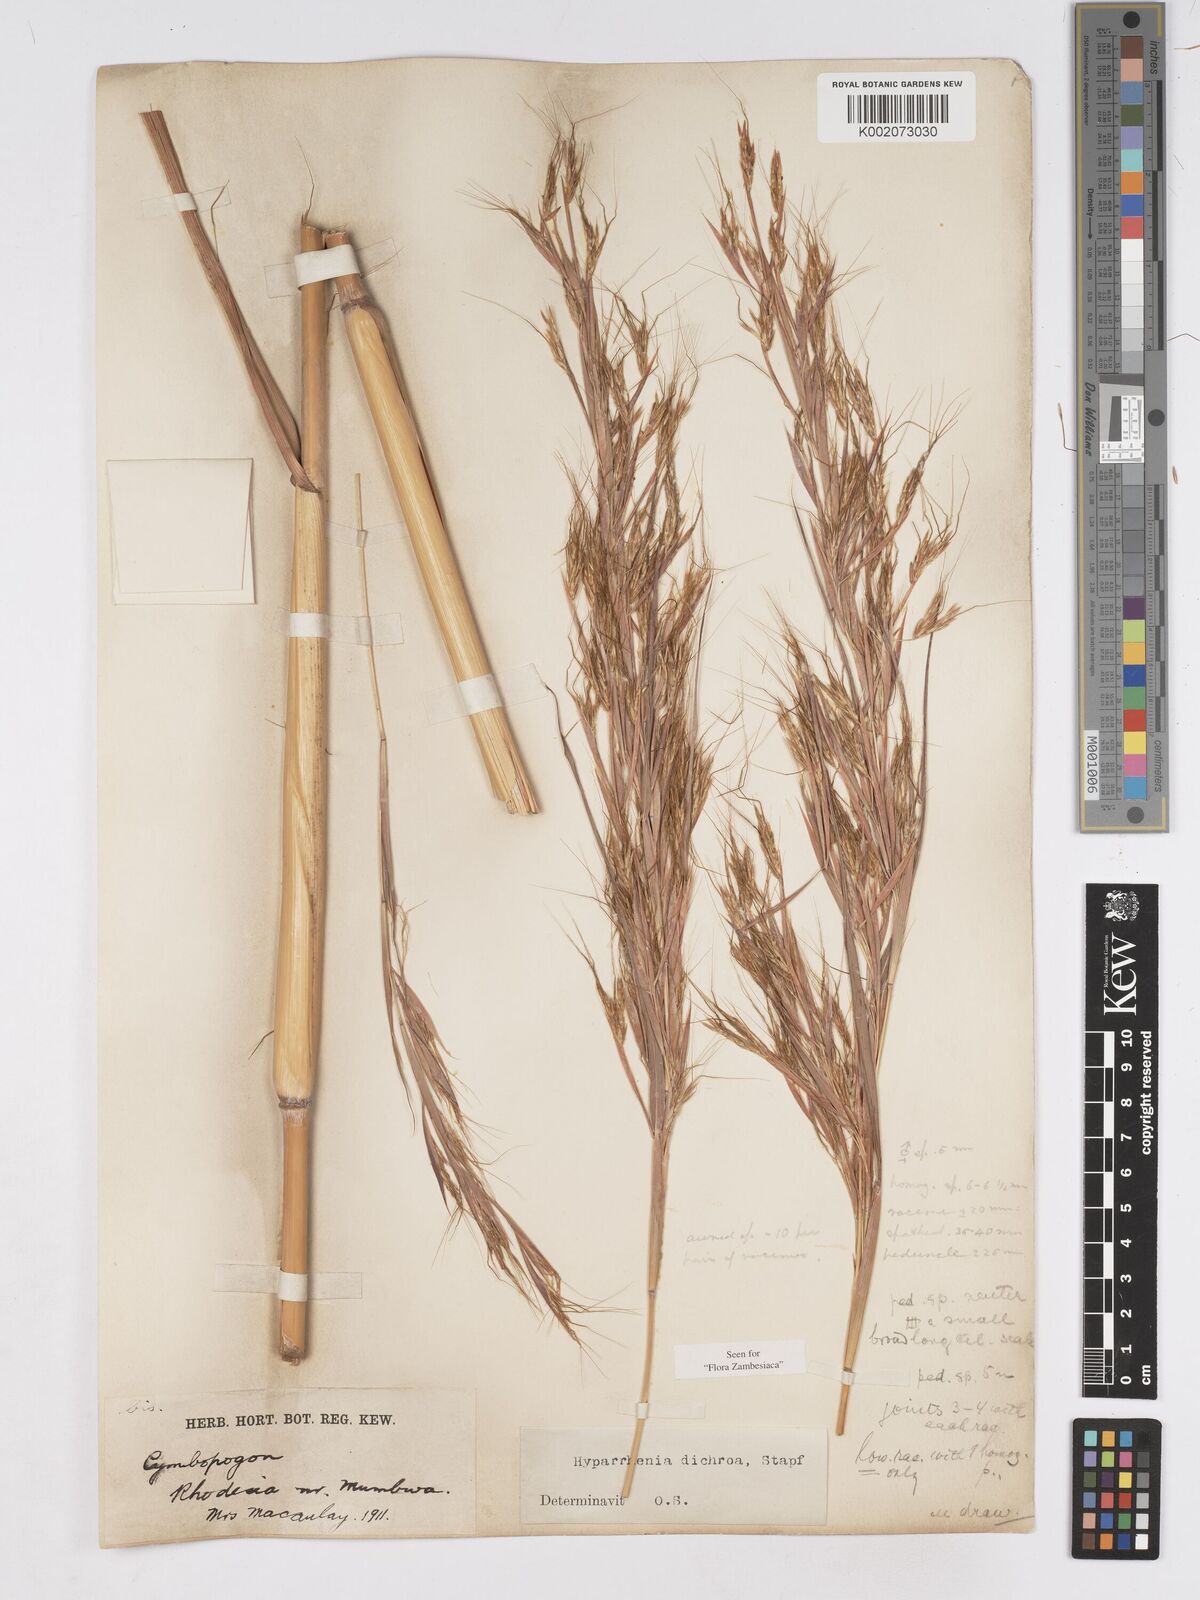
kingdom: Plantae
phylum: Tracheophyta
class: Liliopsida
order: Poales
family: Poaceae
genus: Hyparrhenia
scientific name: Hyparrhenia dichroa
